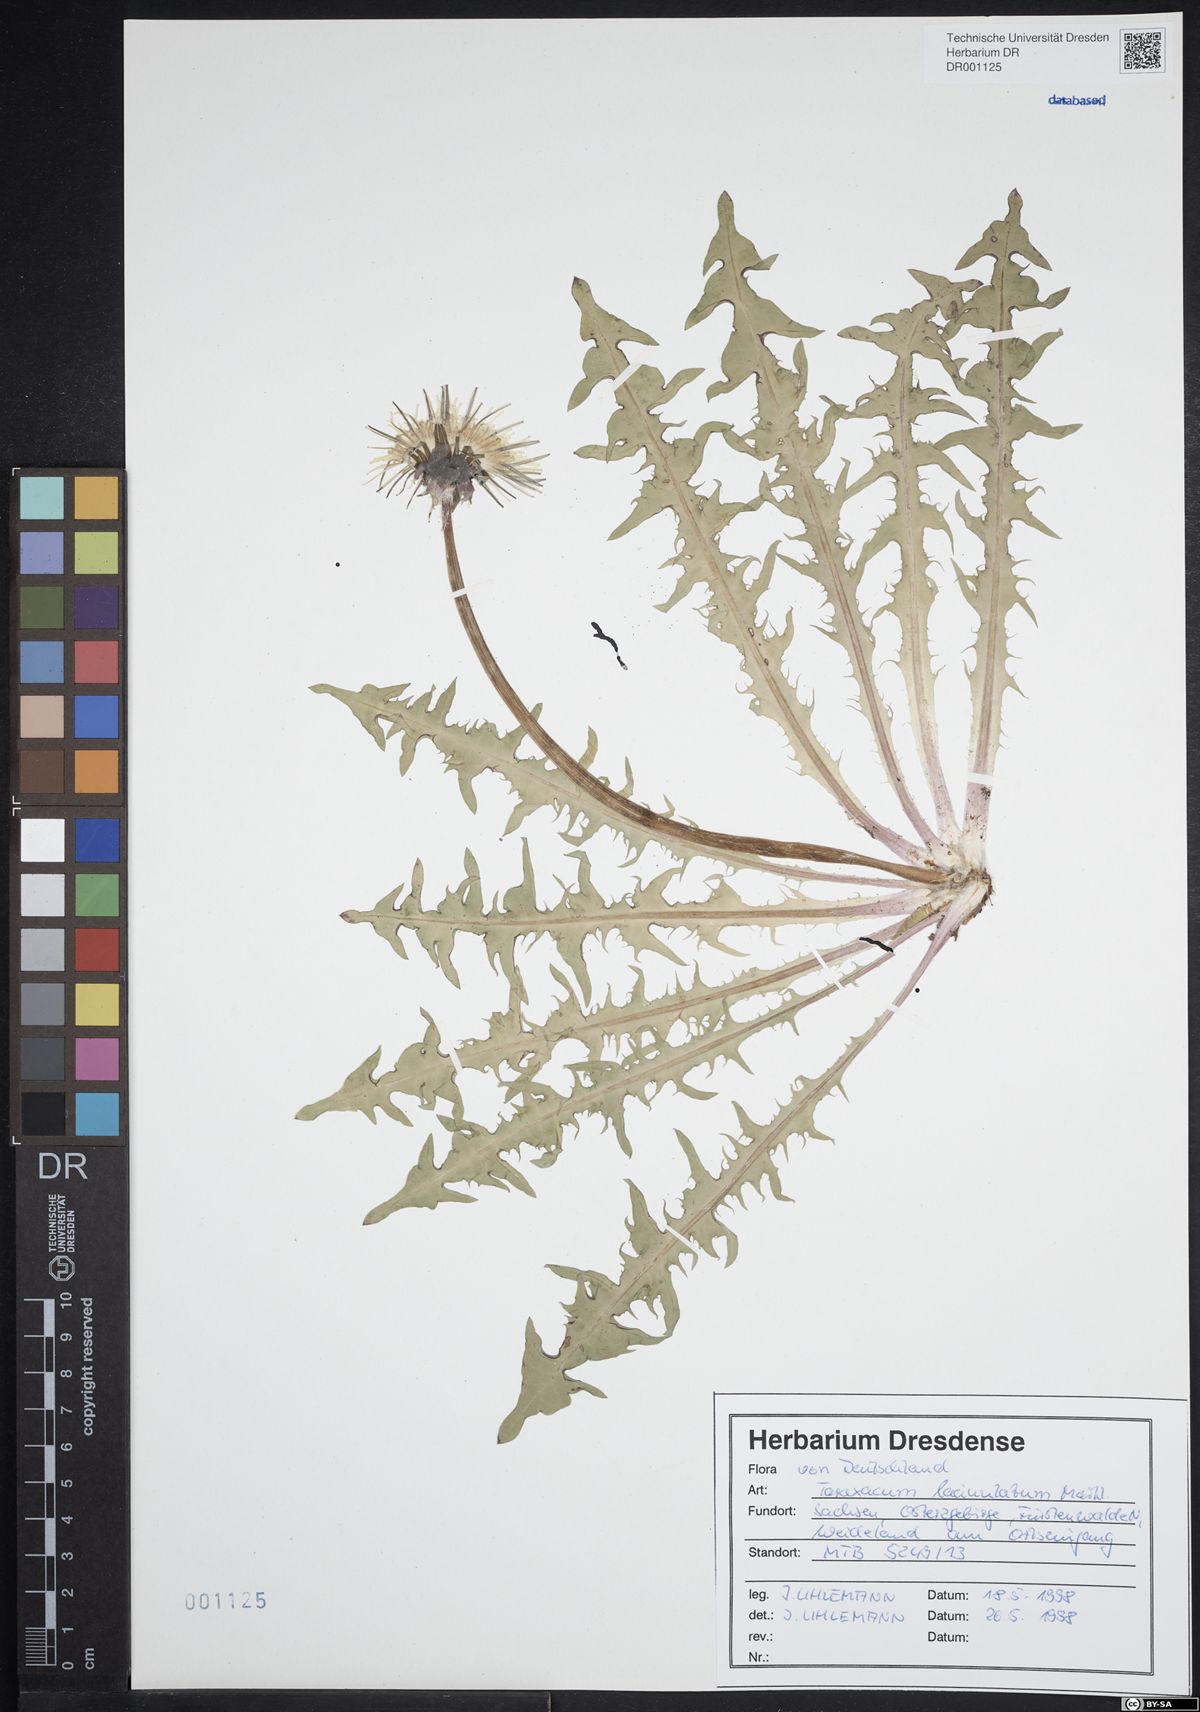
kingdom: Plantae
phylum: Tracheophyta
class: Magnoliopsida
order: Asterales
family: Asteraceae
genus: Taraxacum
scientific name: Taraxacum lacinulatum
